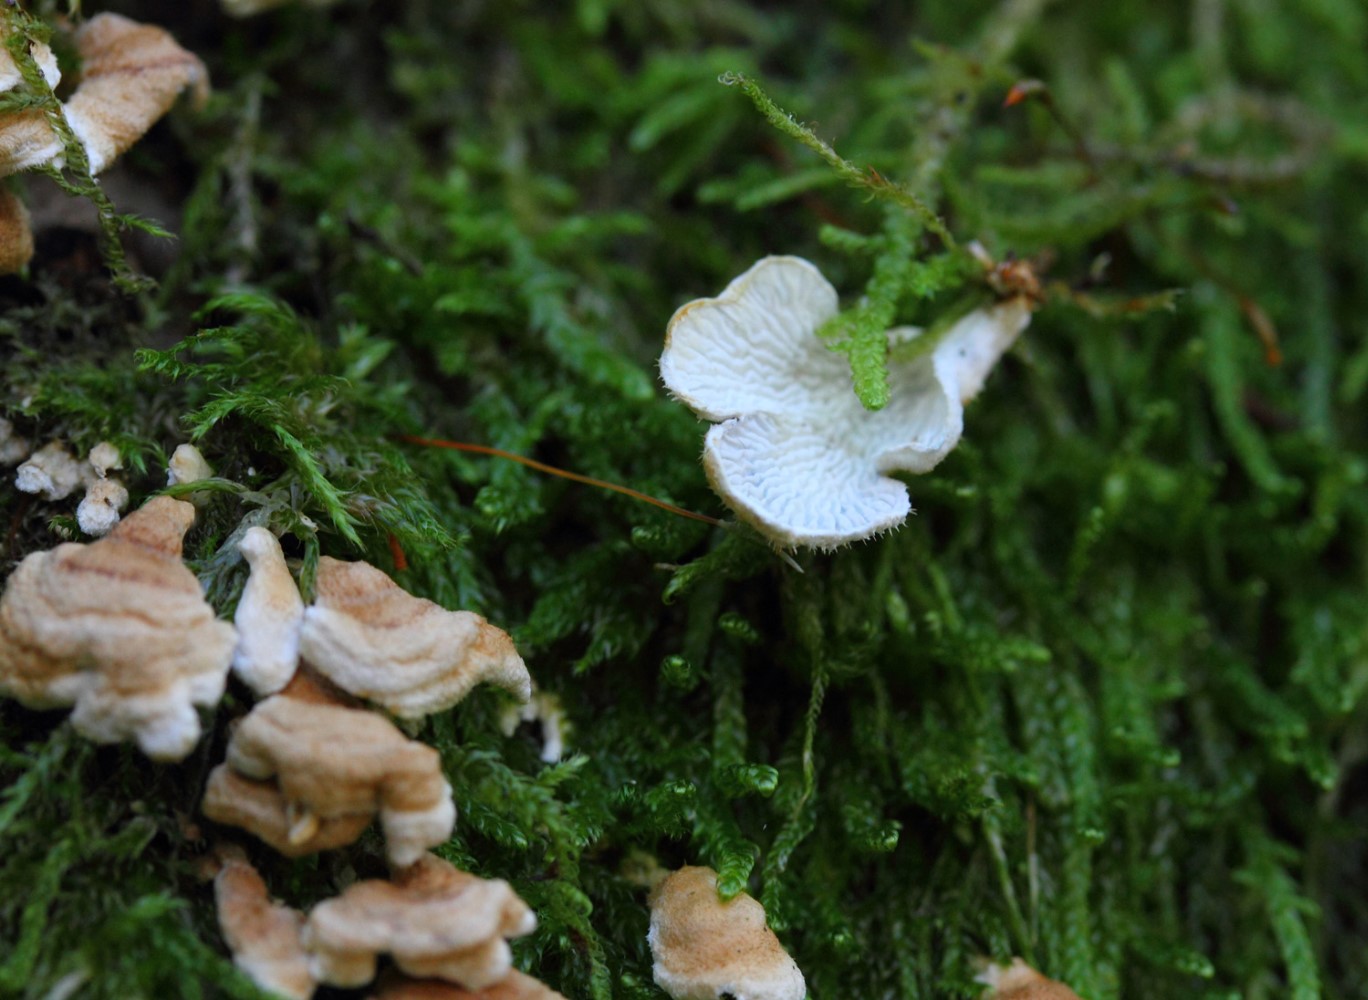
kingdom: Fungi
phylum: Basidiomycota
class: Agaricomycetes
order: Amylocorticiales
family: Amylocorticiaceae
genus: Plicaturopsis
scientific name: Plicaturopsis crispa
